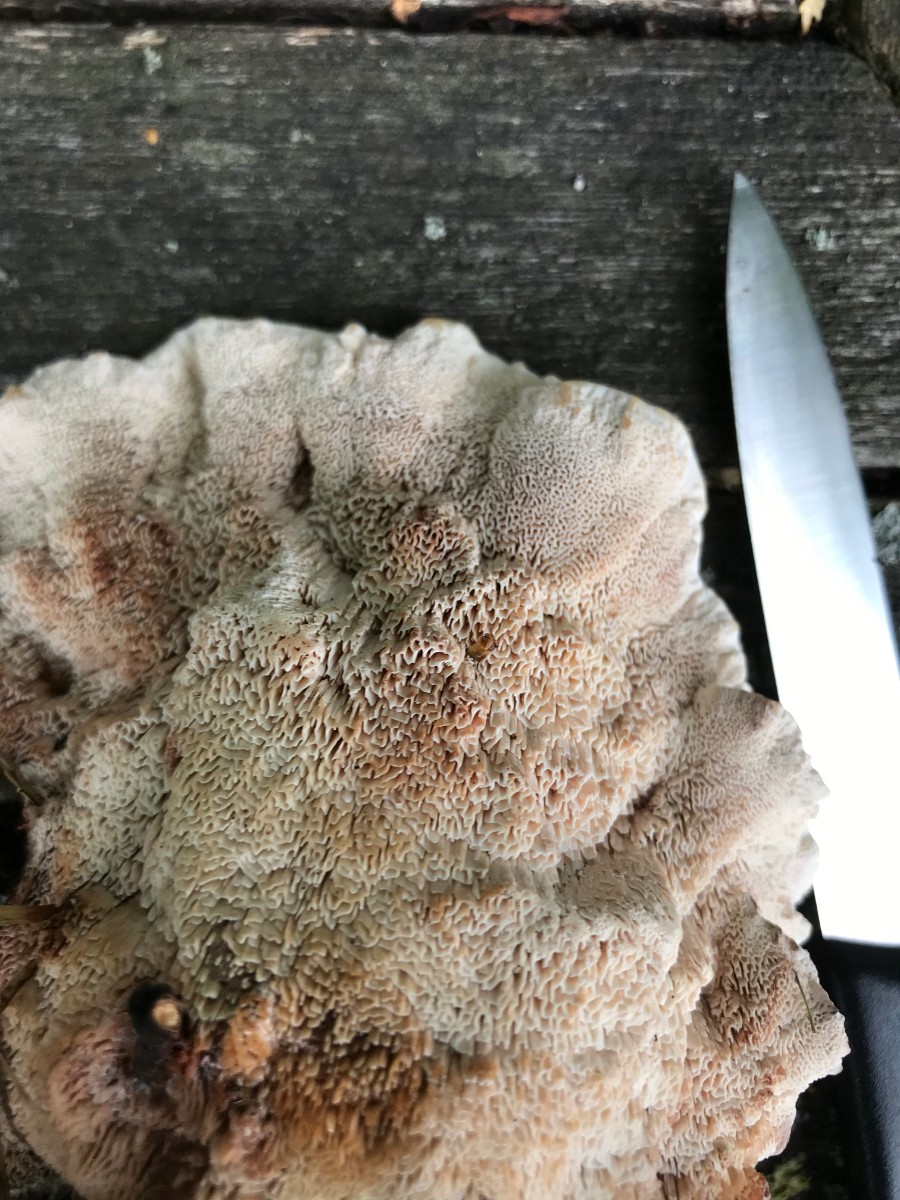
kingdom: Fungi
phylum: Basidiomycota
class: Agaricomycetes
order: Polyporales
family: Podoscyphaceae
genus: Abortiporus
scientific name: Abortiporus biennis
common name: rødmende pjalteporesvamp
